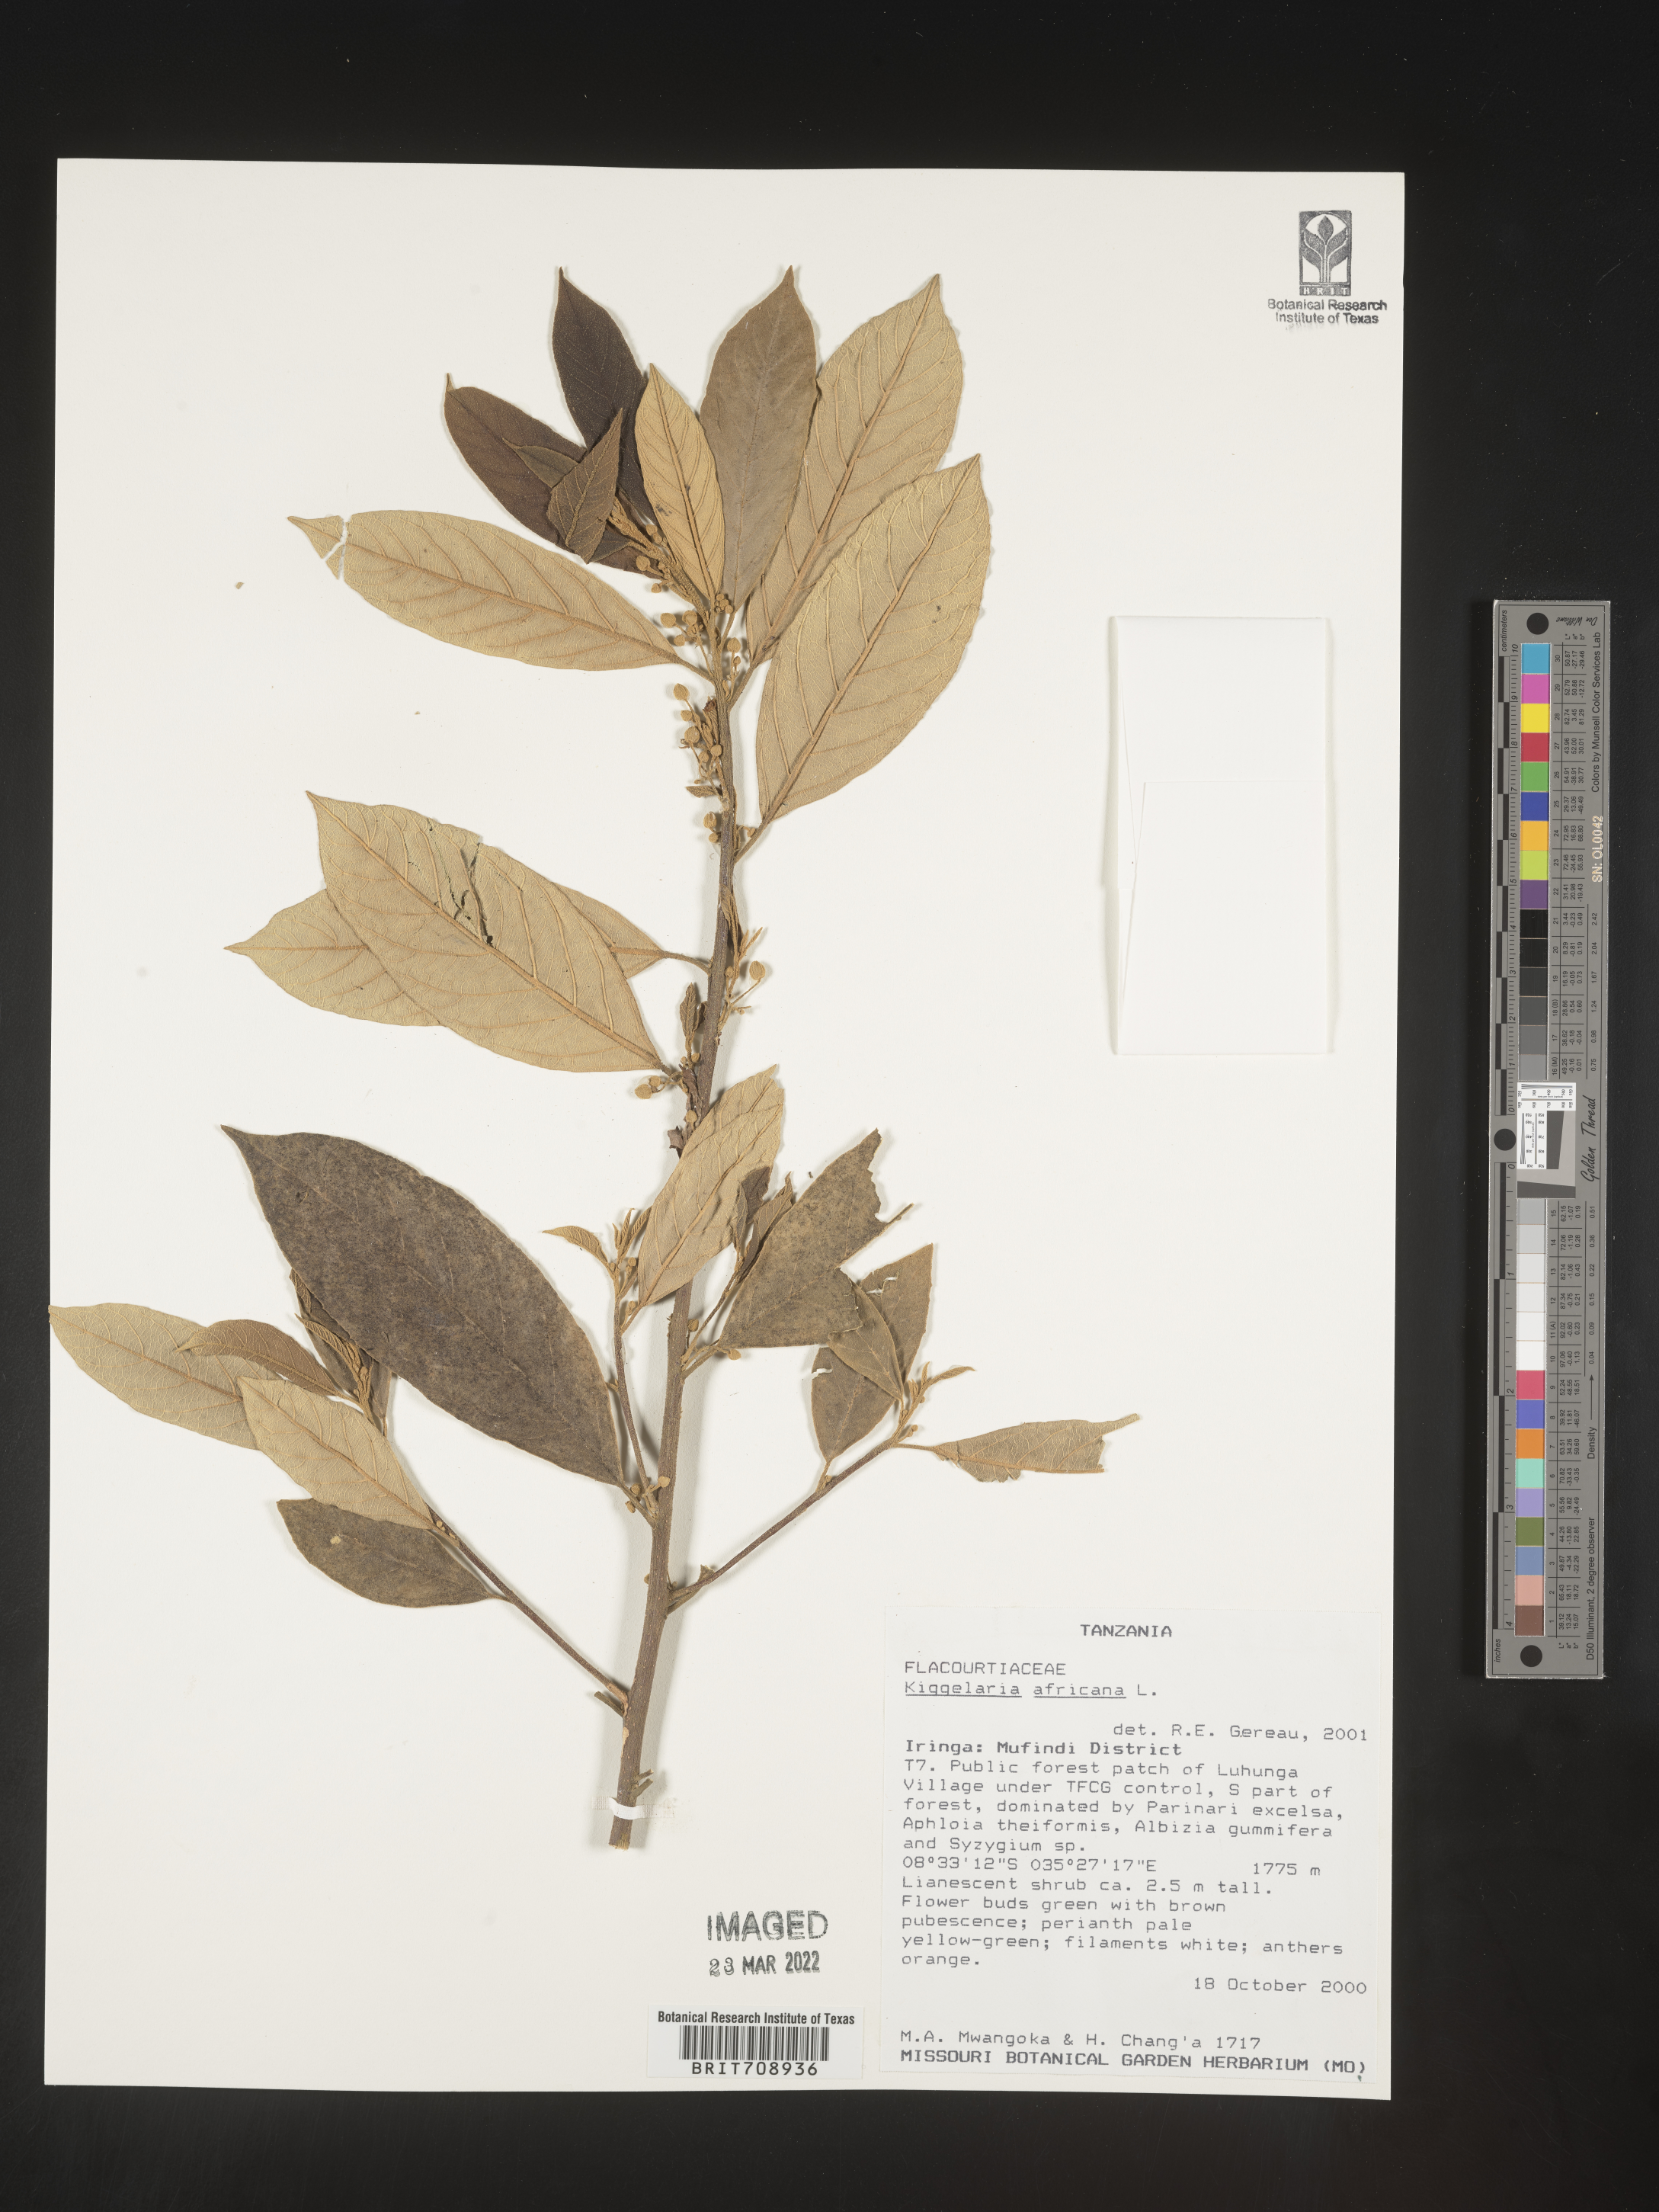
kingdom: Plantae
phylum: Tracheophyta
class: Magnoliopsida
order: Malpighiales
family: Achariaceae
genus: Kiggelaria
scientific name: Kiggelaria
